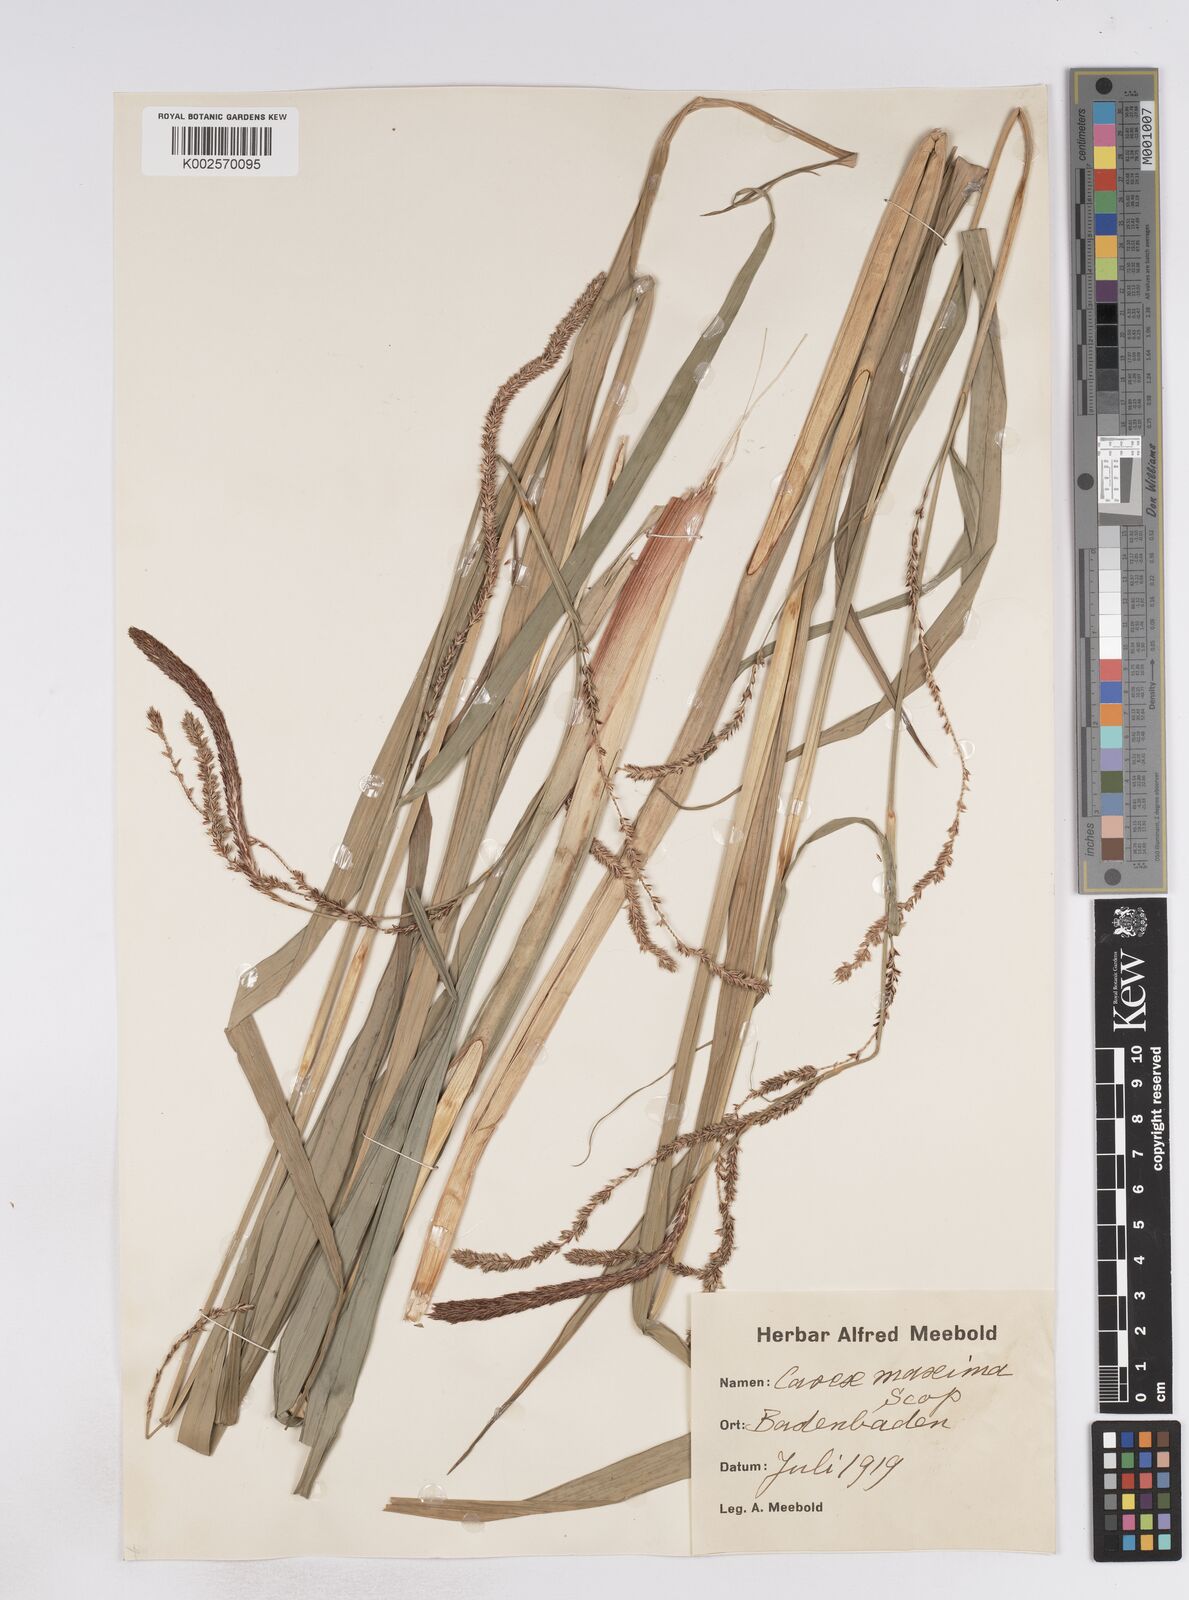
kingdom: Plantae
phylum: Tracheophyta
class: Liliopsida
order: Poales
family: Cyperaceae
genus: Carex
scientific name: Carex pendula
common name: Pendulous sedge
